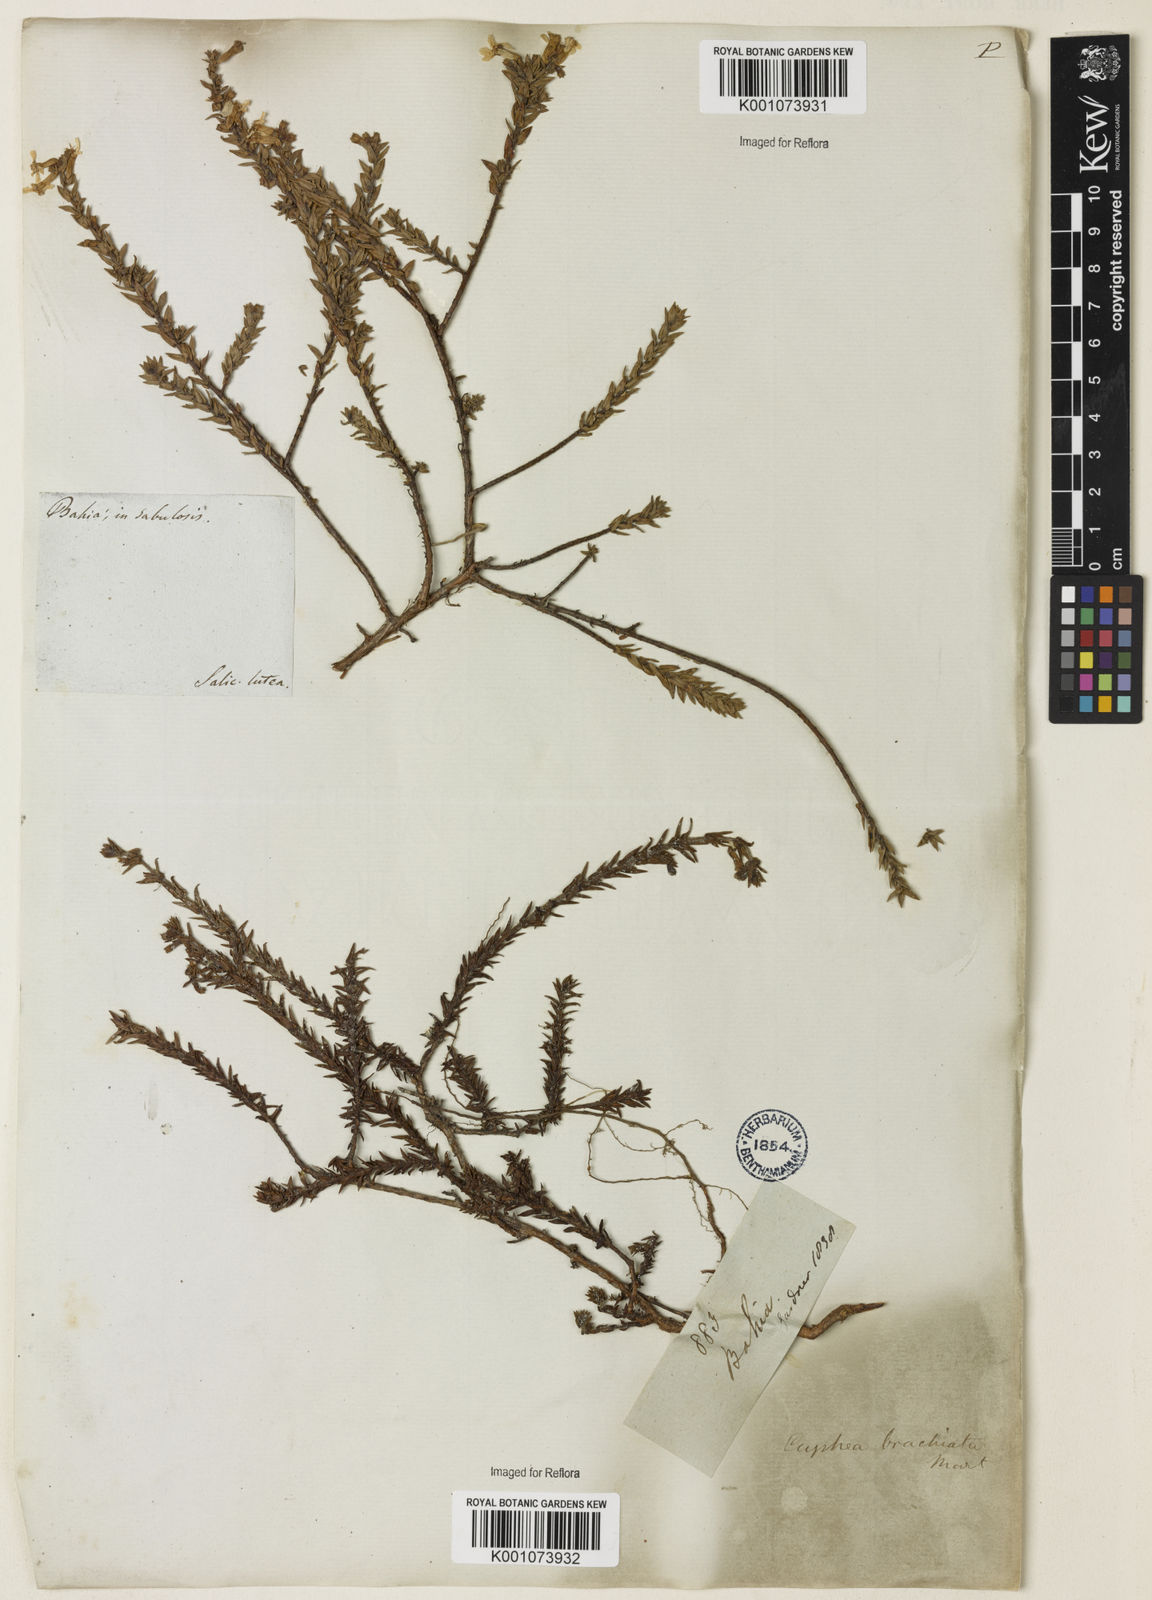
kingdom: Plantae
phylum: Tracheophyta
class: Magnoliopsida
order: Myrtales
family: Lythraceae
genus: Cuphea
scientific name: Cuphea brachiata
